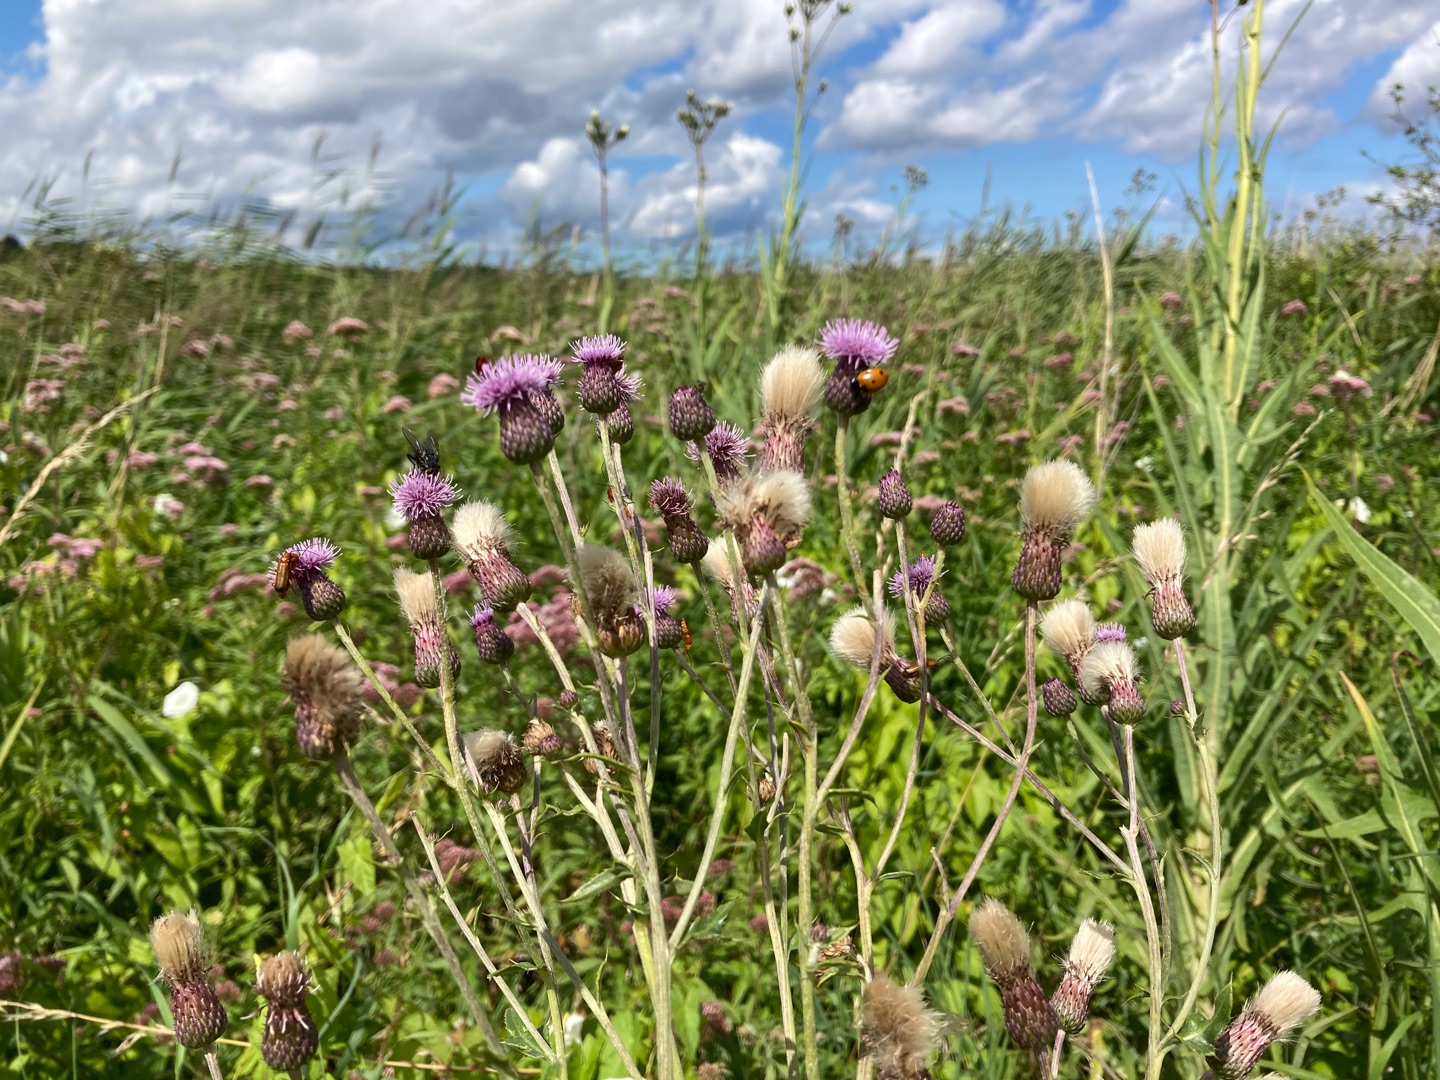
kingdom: Plantae
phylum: Tracheophyta
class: Magnoliopsida
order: Asterales
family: Asteraceae
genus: Cirsium
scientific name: Cirsium arvense
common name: Ager-tidsel
